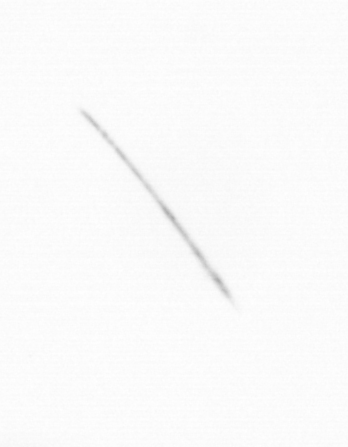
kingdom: Chromista
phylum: Ochrophyta
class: Bacillariophyceae
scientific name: Bacillariophyceae
